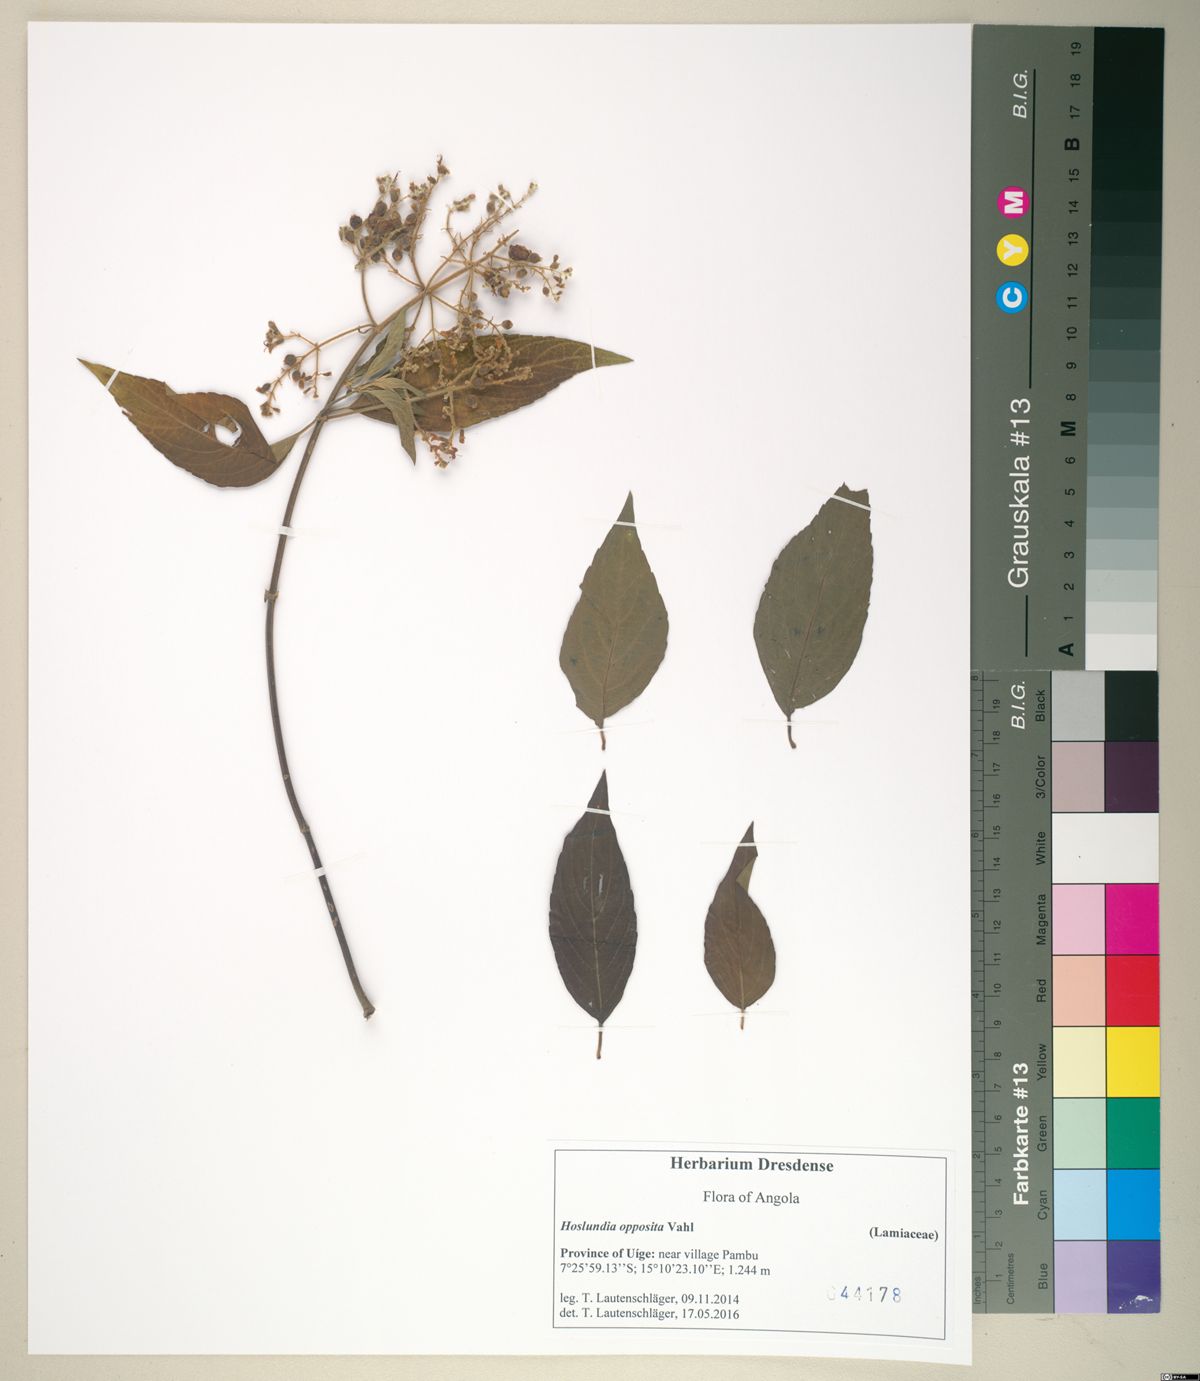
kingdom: Plantae
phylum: Tracheophyta
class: Magnoliopsida
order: Lamiales
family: Lamiaceae
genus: Hoslundia
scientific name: Hoslundia opposita
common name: Kamyuye
